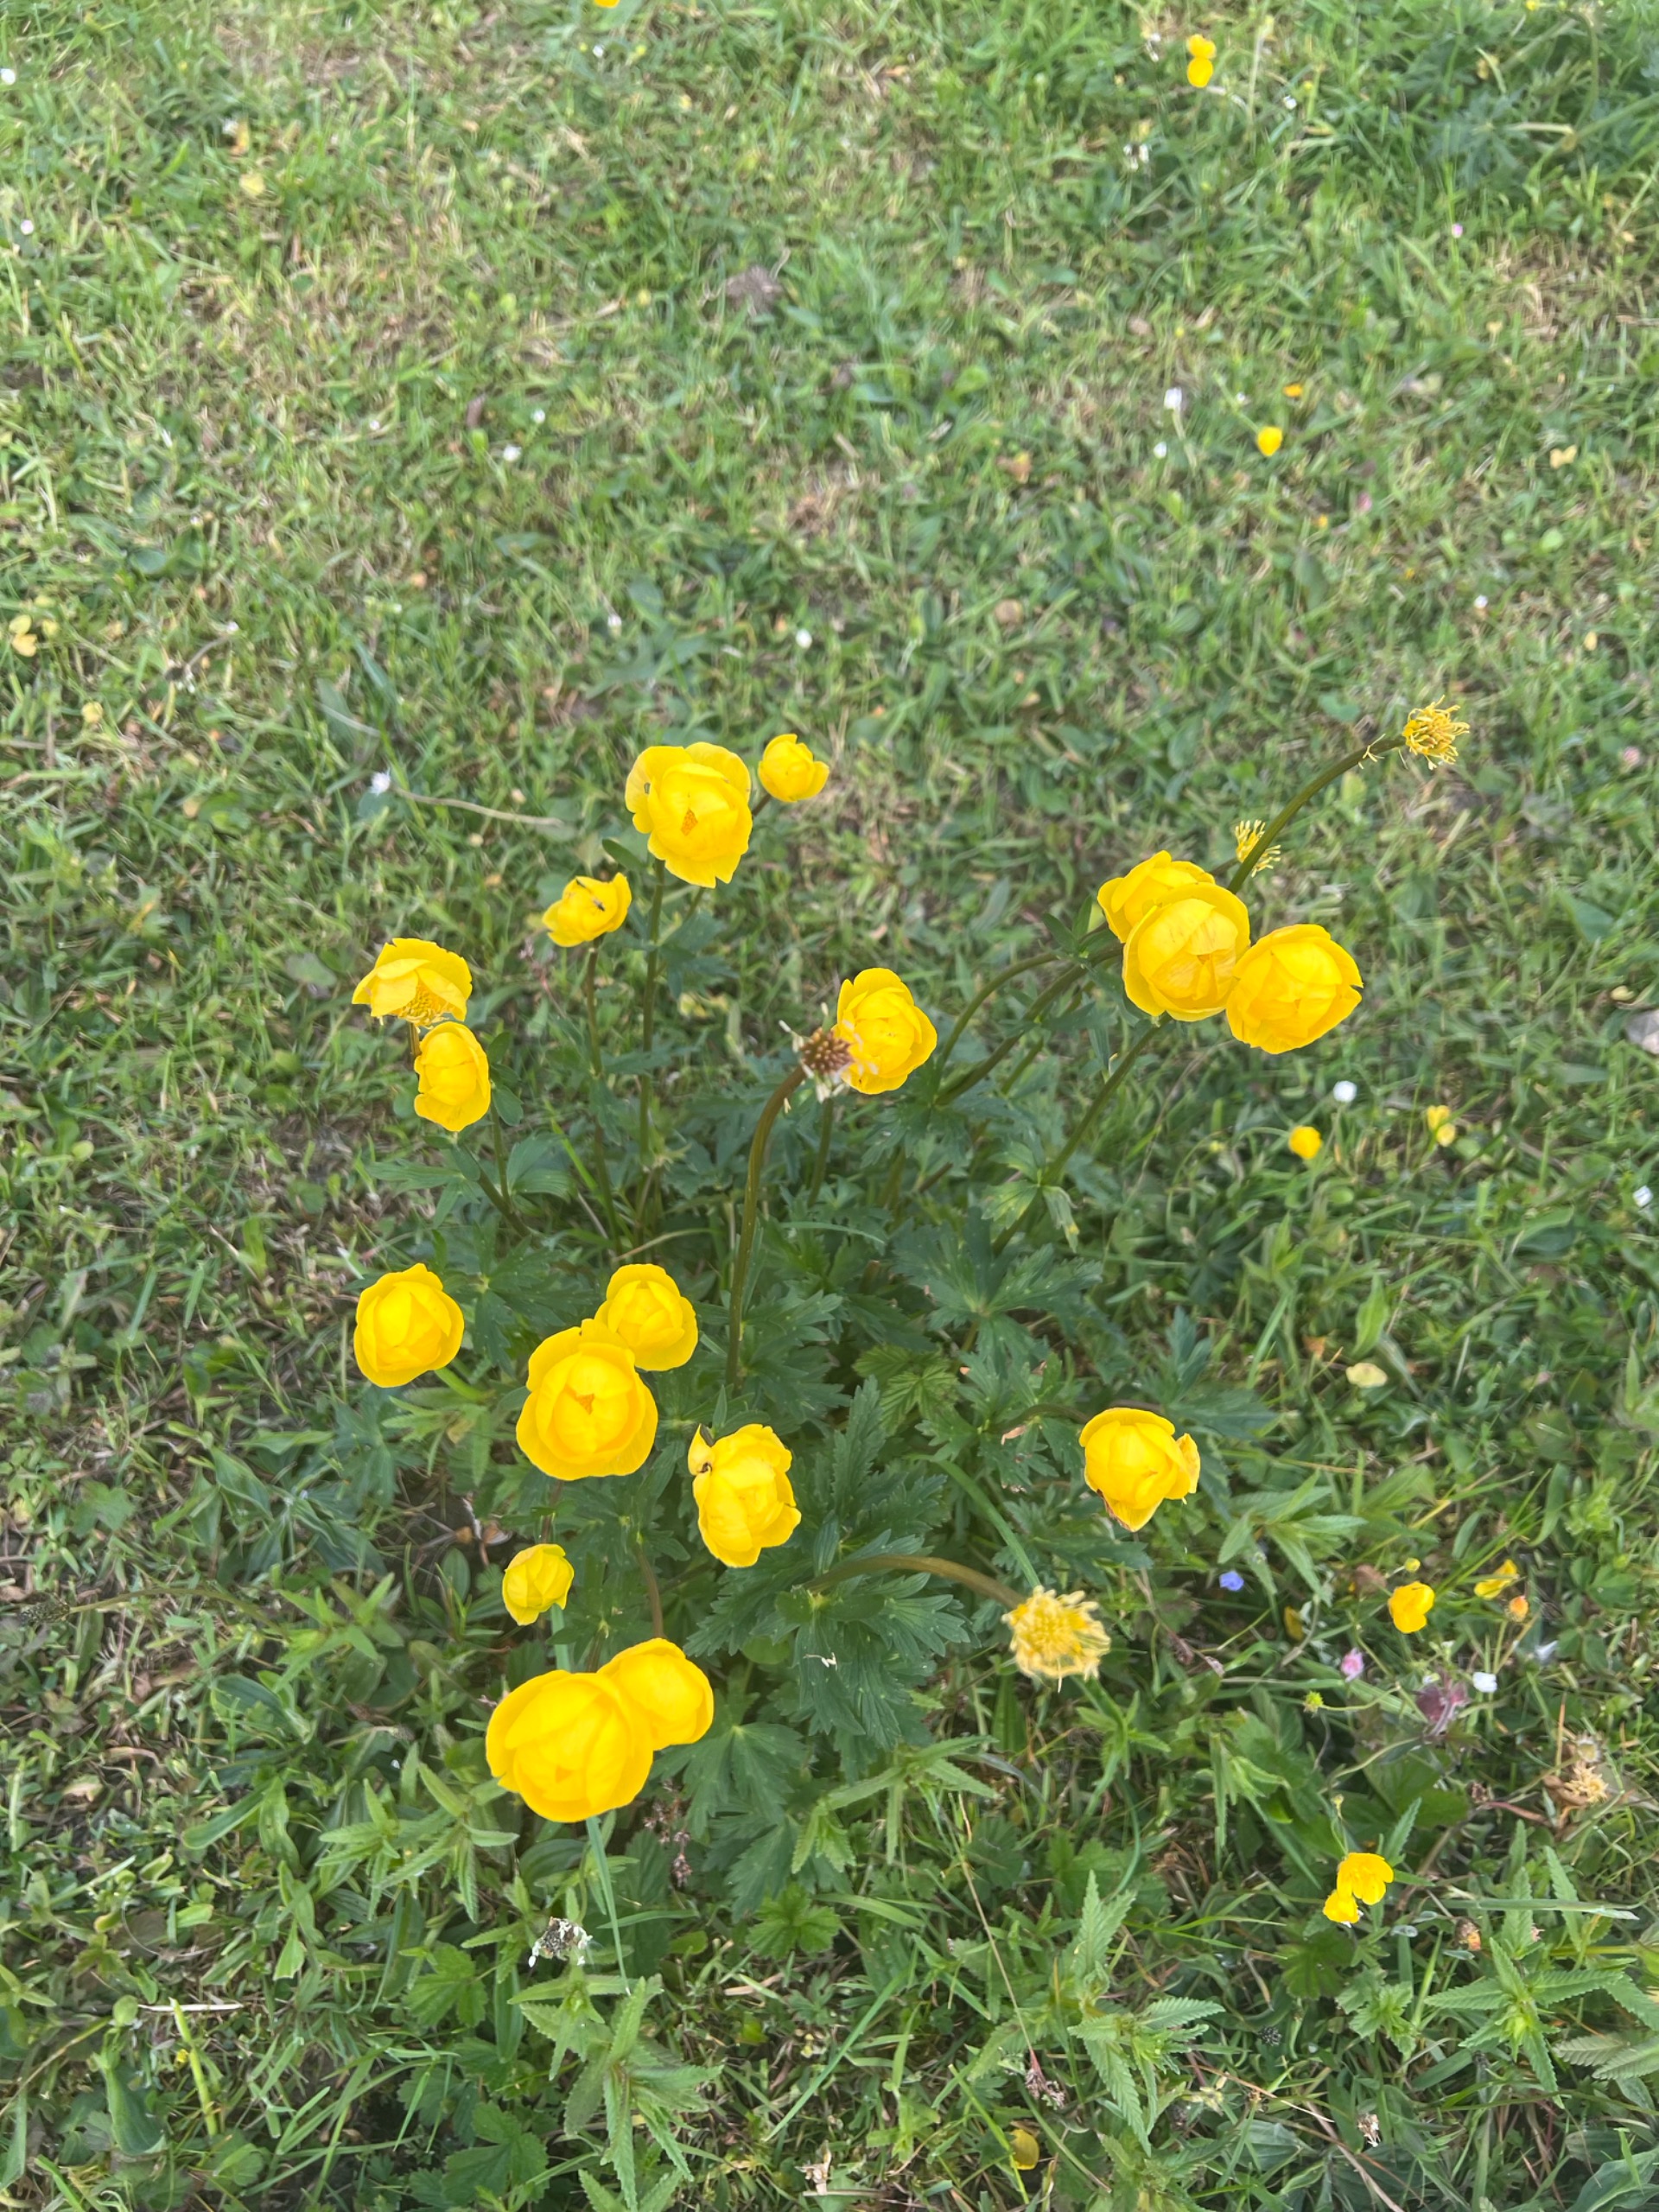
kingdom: Plantae
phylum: Tracheophyta
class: Magnoliopsida
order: Ranunculales
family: Ranunculaceae
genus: Trollius
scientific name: Trollius europaeus
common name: Engblomme
